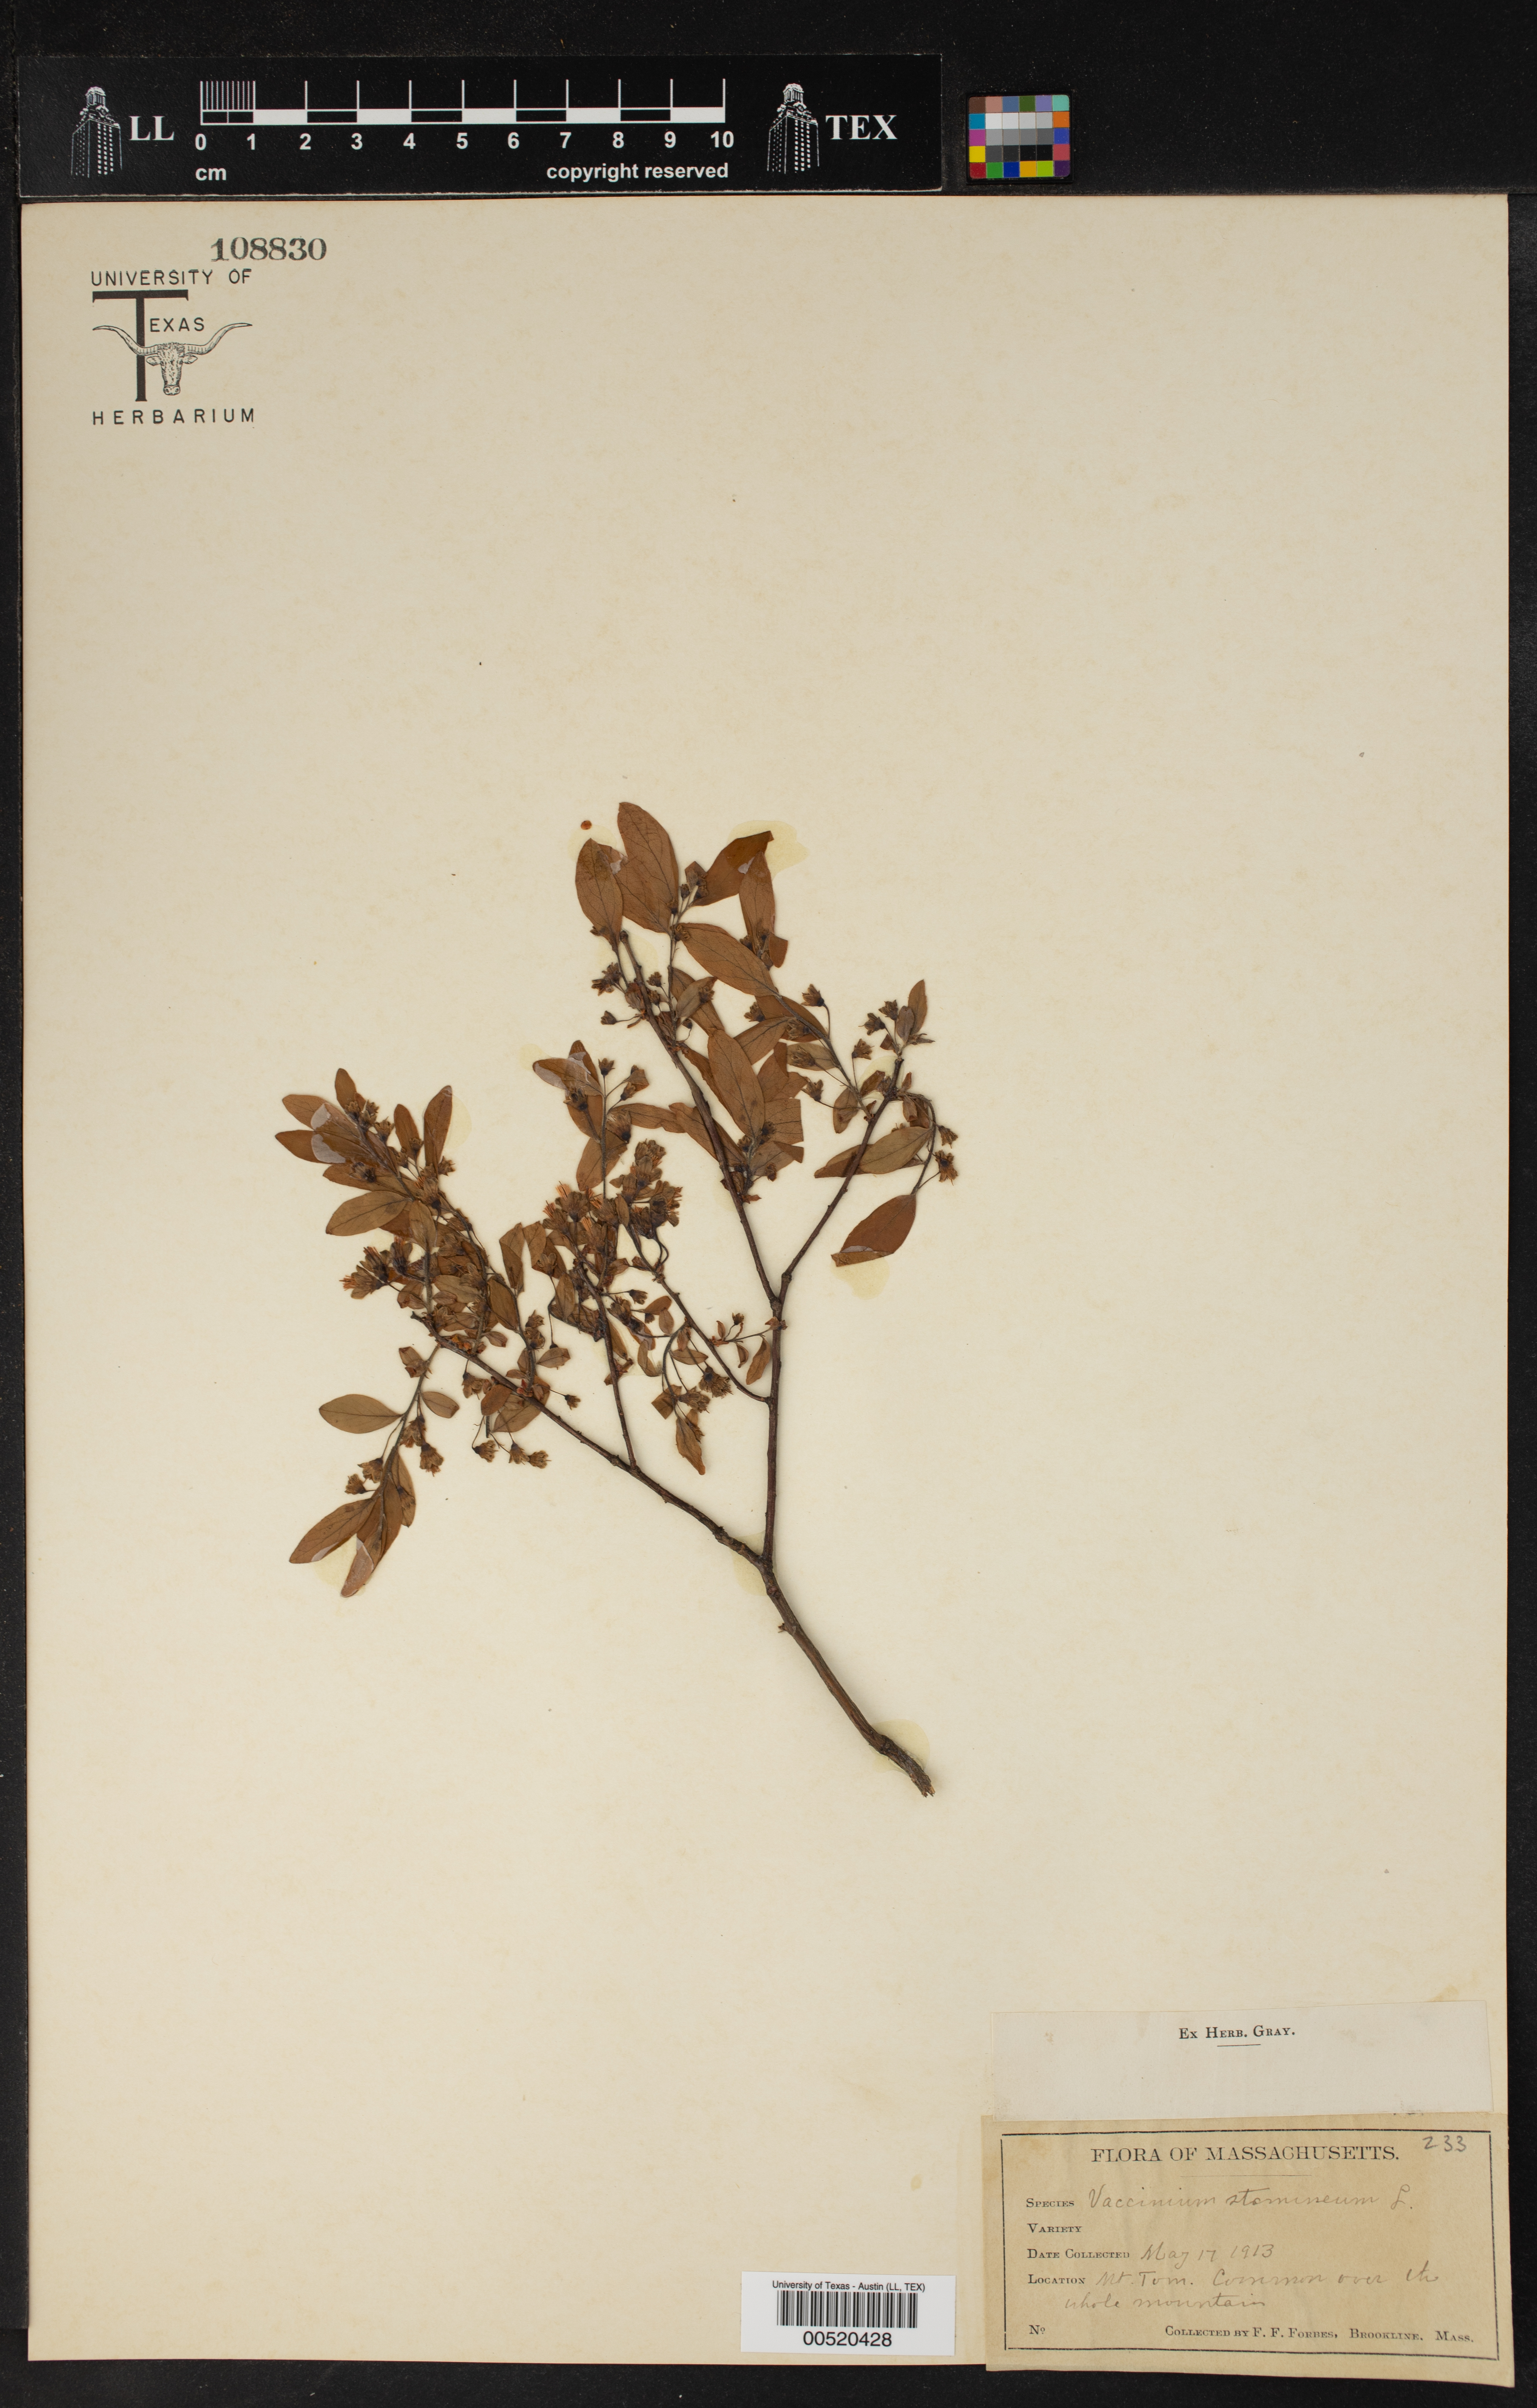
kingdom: Plantae
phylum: Tracheophyta
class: Magnoliopsida
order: Ericales
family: Ericaceae
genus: Vaccinium
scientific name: Vaccinium stamineum
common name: Deerberry
